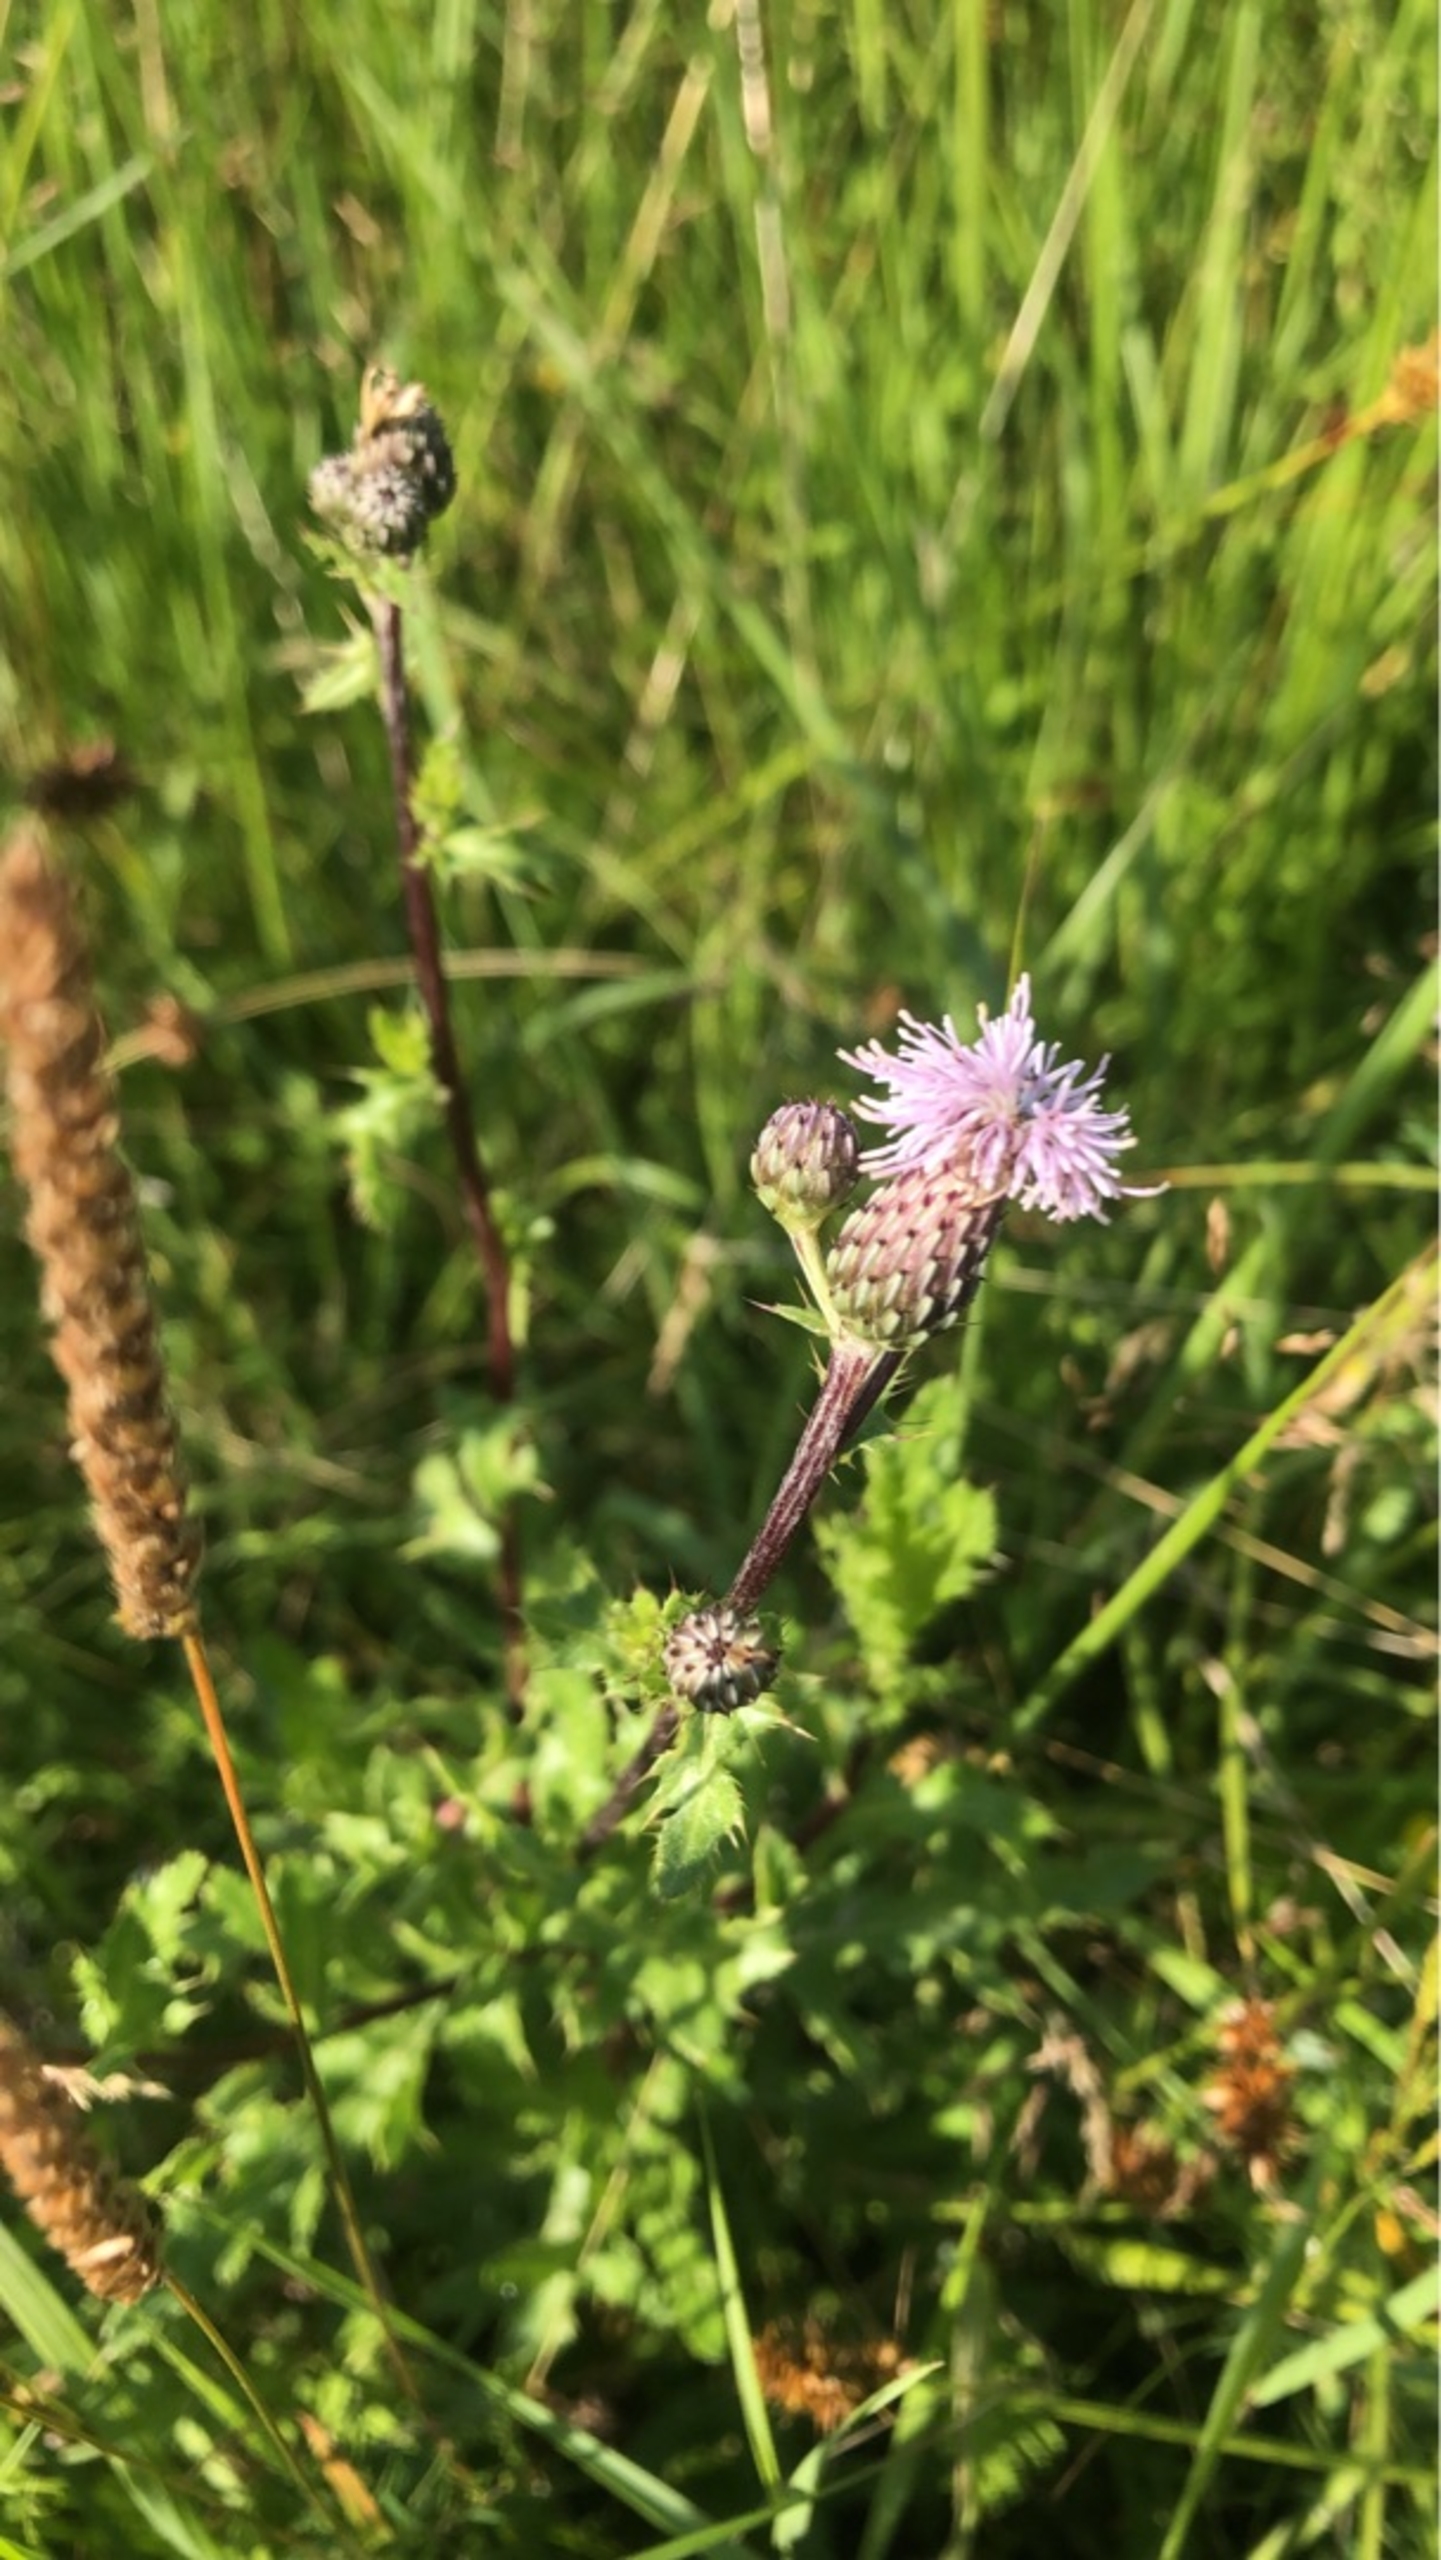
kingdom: Plantae
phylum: Tracheophyta
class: Magnoliopsida
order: Asterales
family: Asteraceae
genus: Cirsium
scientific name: Cirsium arvense
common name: Ager-tidsel
